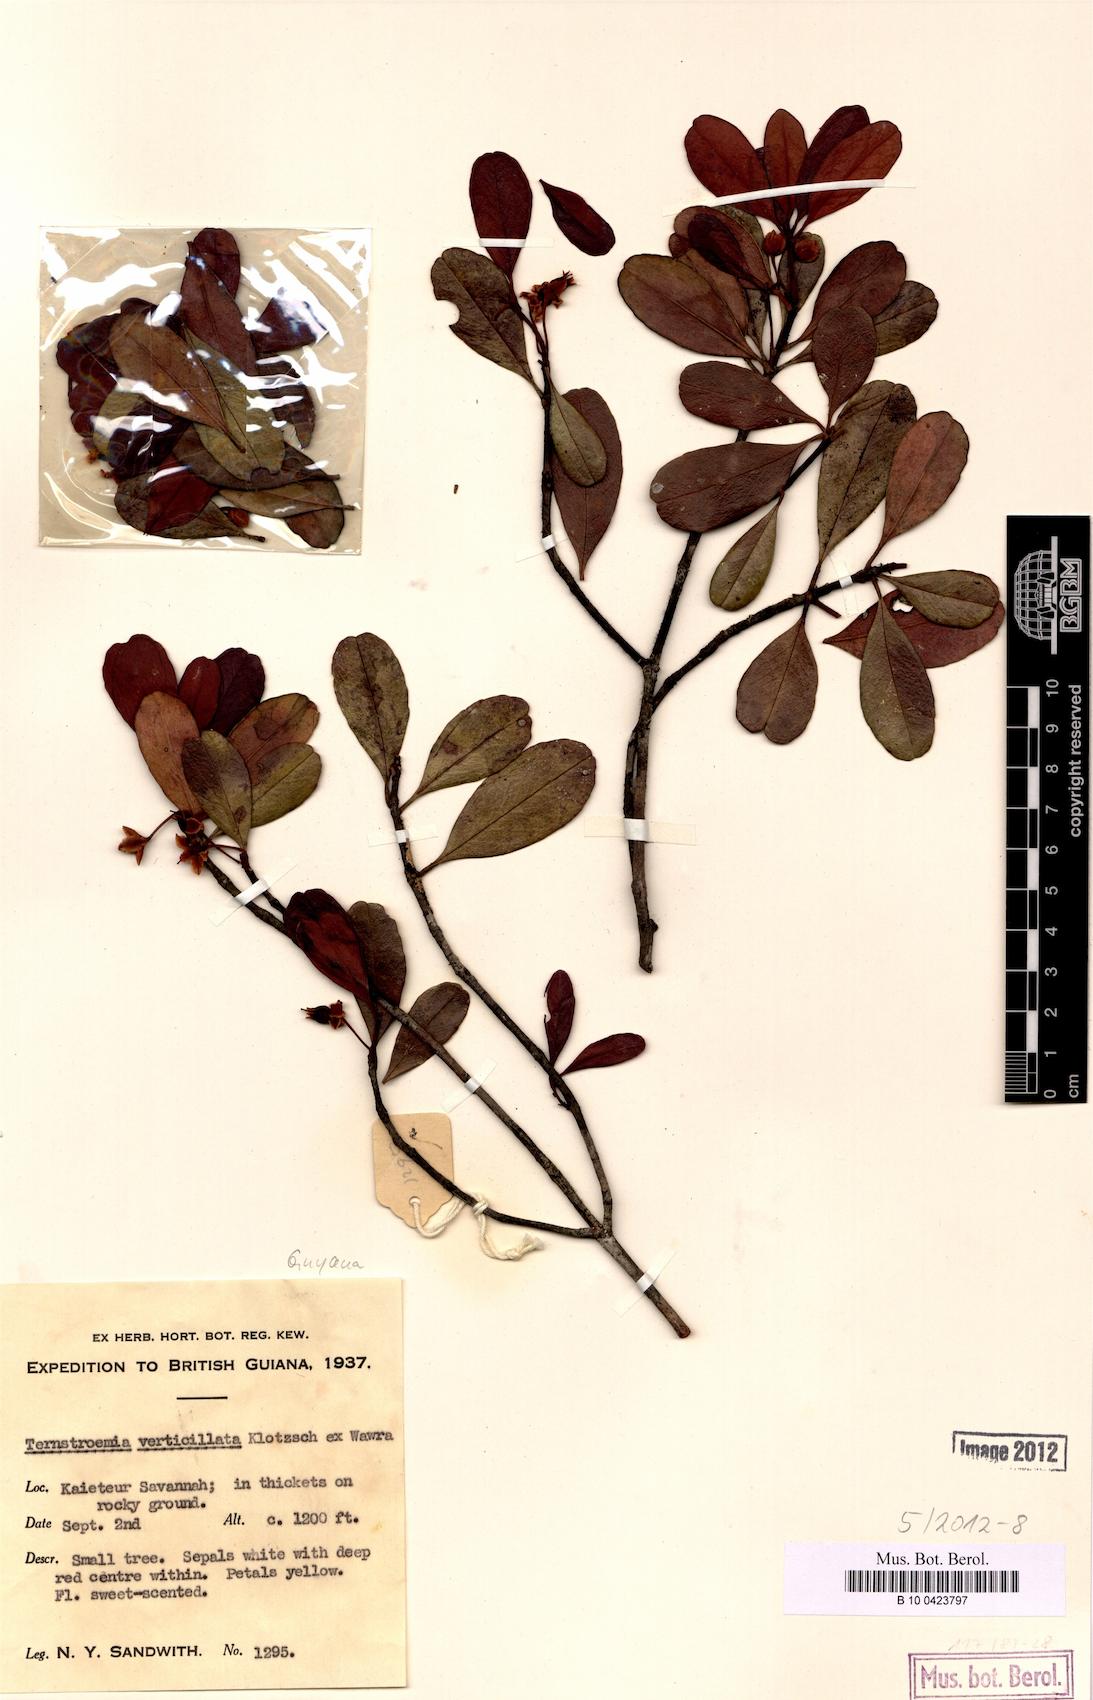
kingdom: Plantae
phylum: Tracheophyta
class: Magnoliopsida
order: Ericales
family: Pentaphylacaceae
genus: Ternstroemia
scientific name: Ternstroemia verticillata
